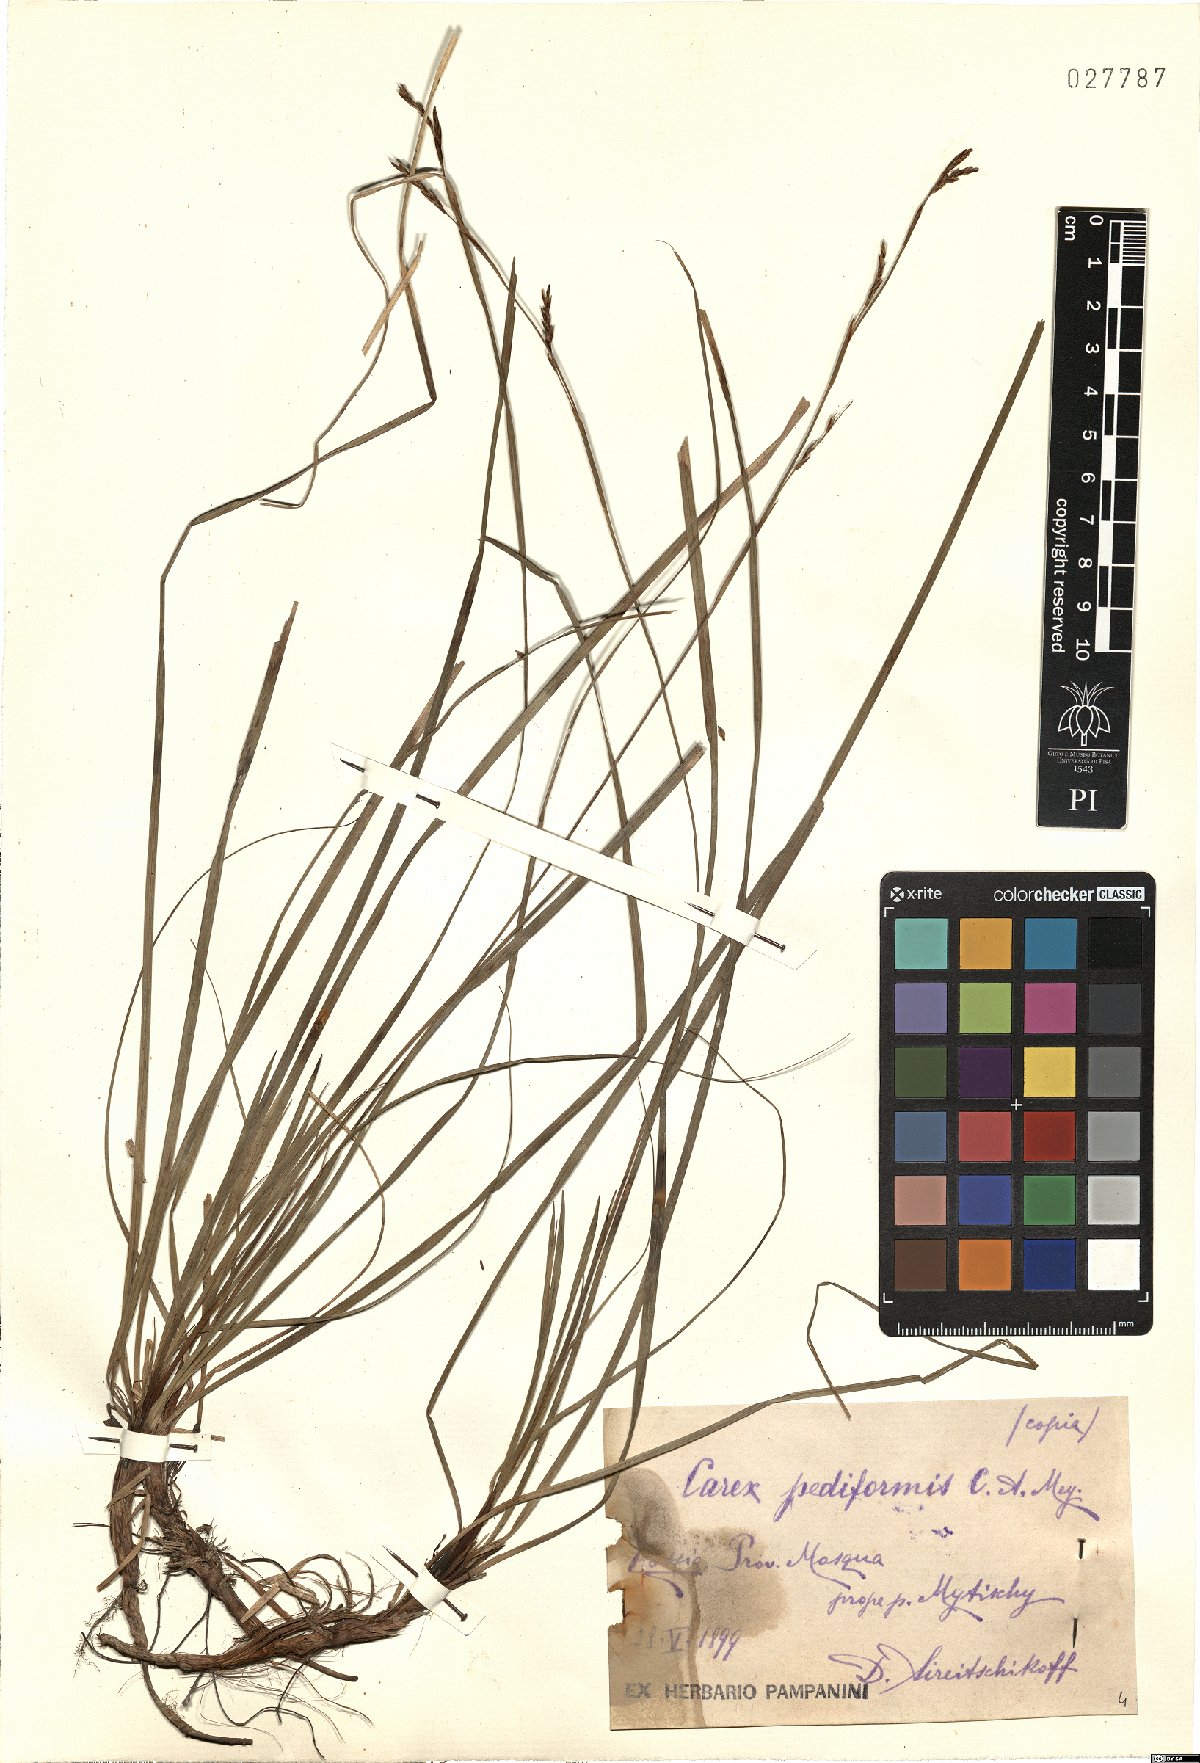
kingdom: Plantae
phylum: Tracheophyta
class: Liliopsida
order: Poales
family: Cyperaceae
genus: Carex
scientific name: Carex pediformis
